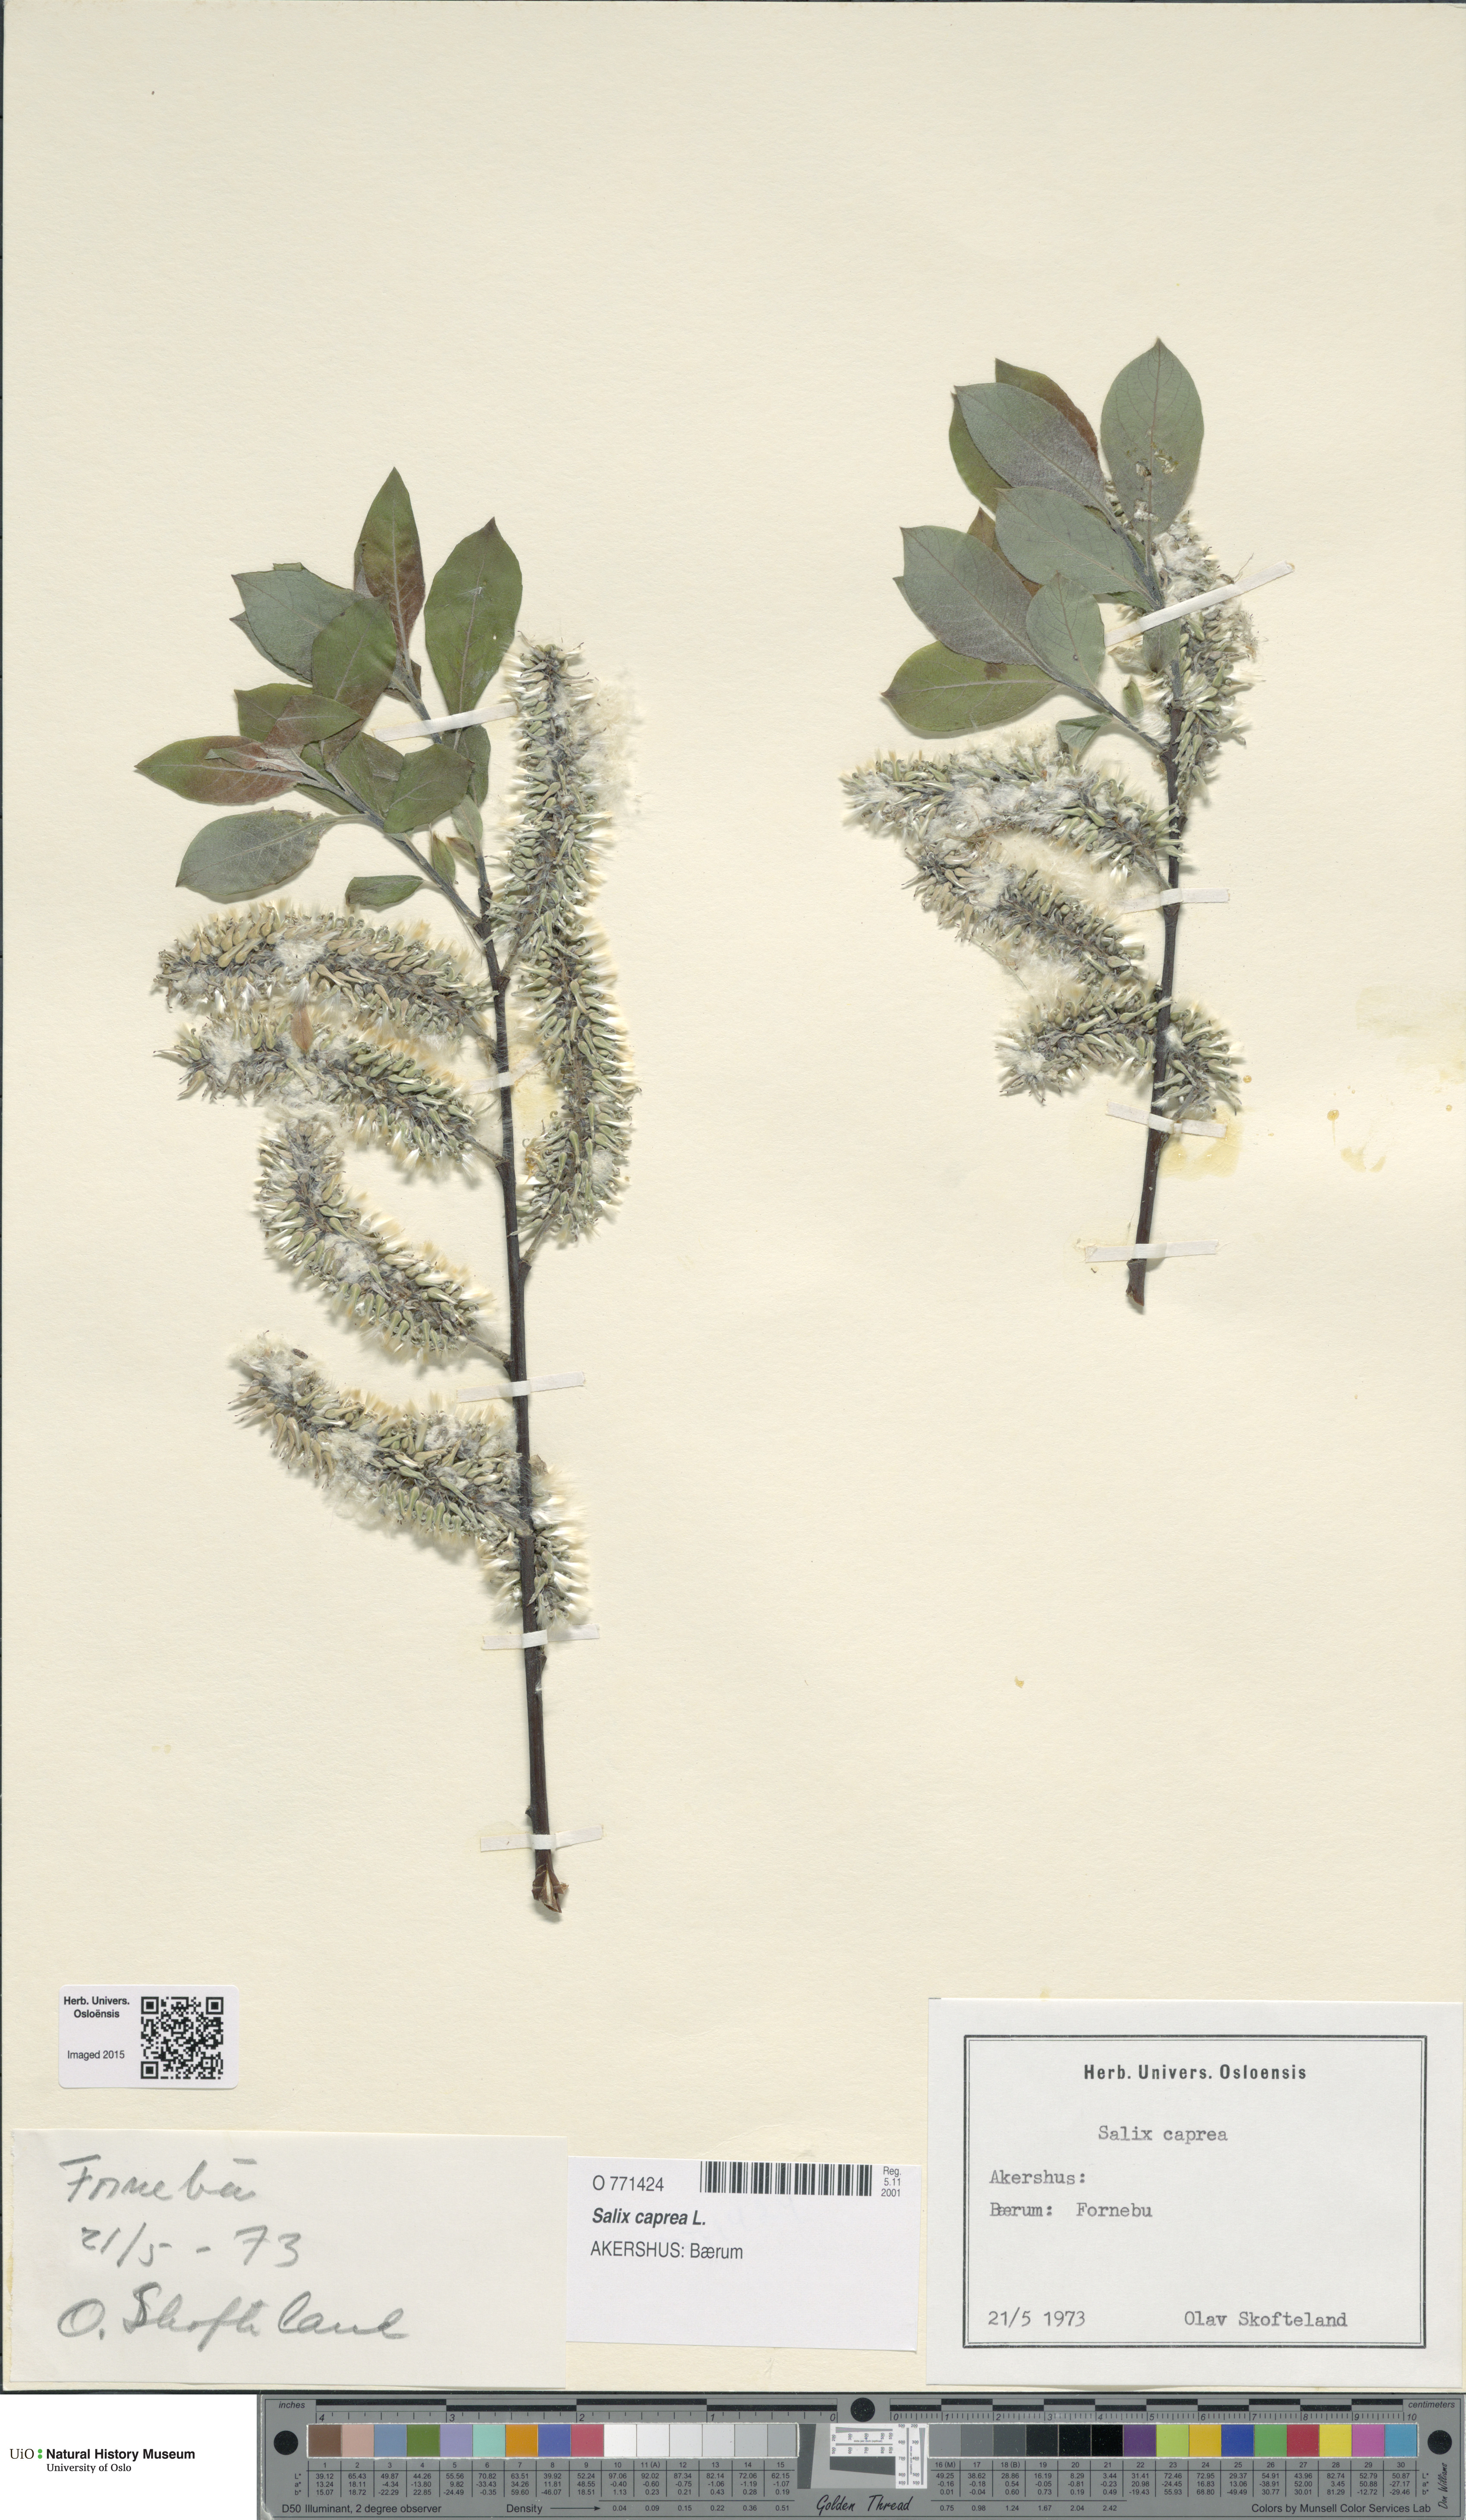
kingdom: Plantae
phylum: Tracheophyta
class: Magnoliopsida
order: Malpighiales
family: Salicaceae
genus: Salix
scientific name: Salix caprea
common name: Goat willow
